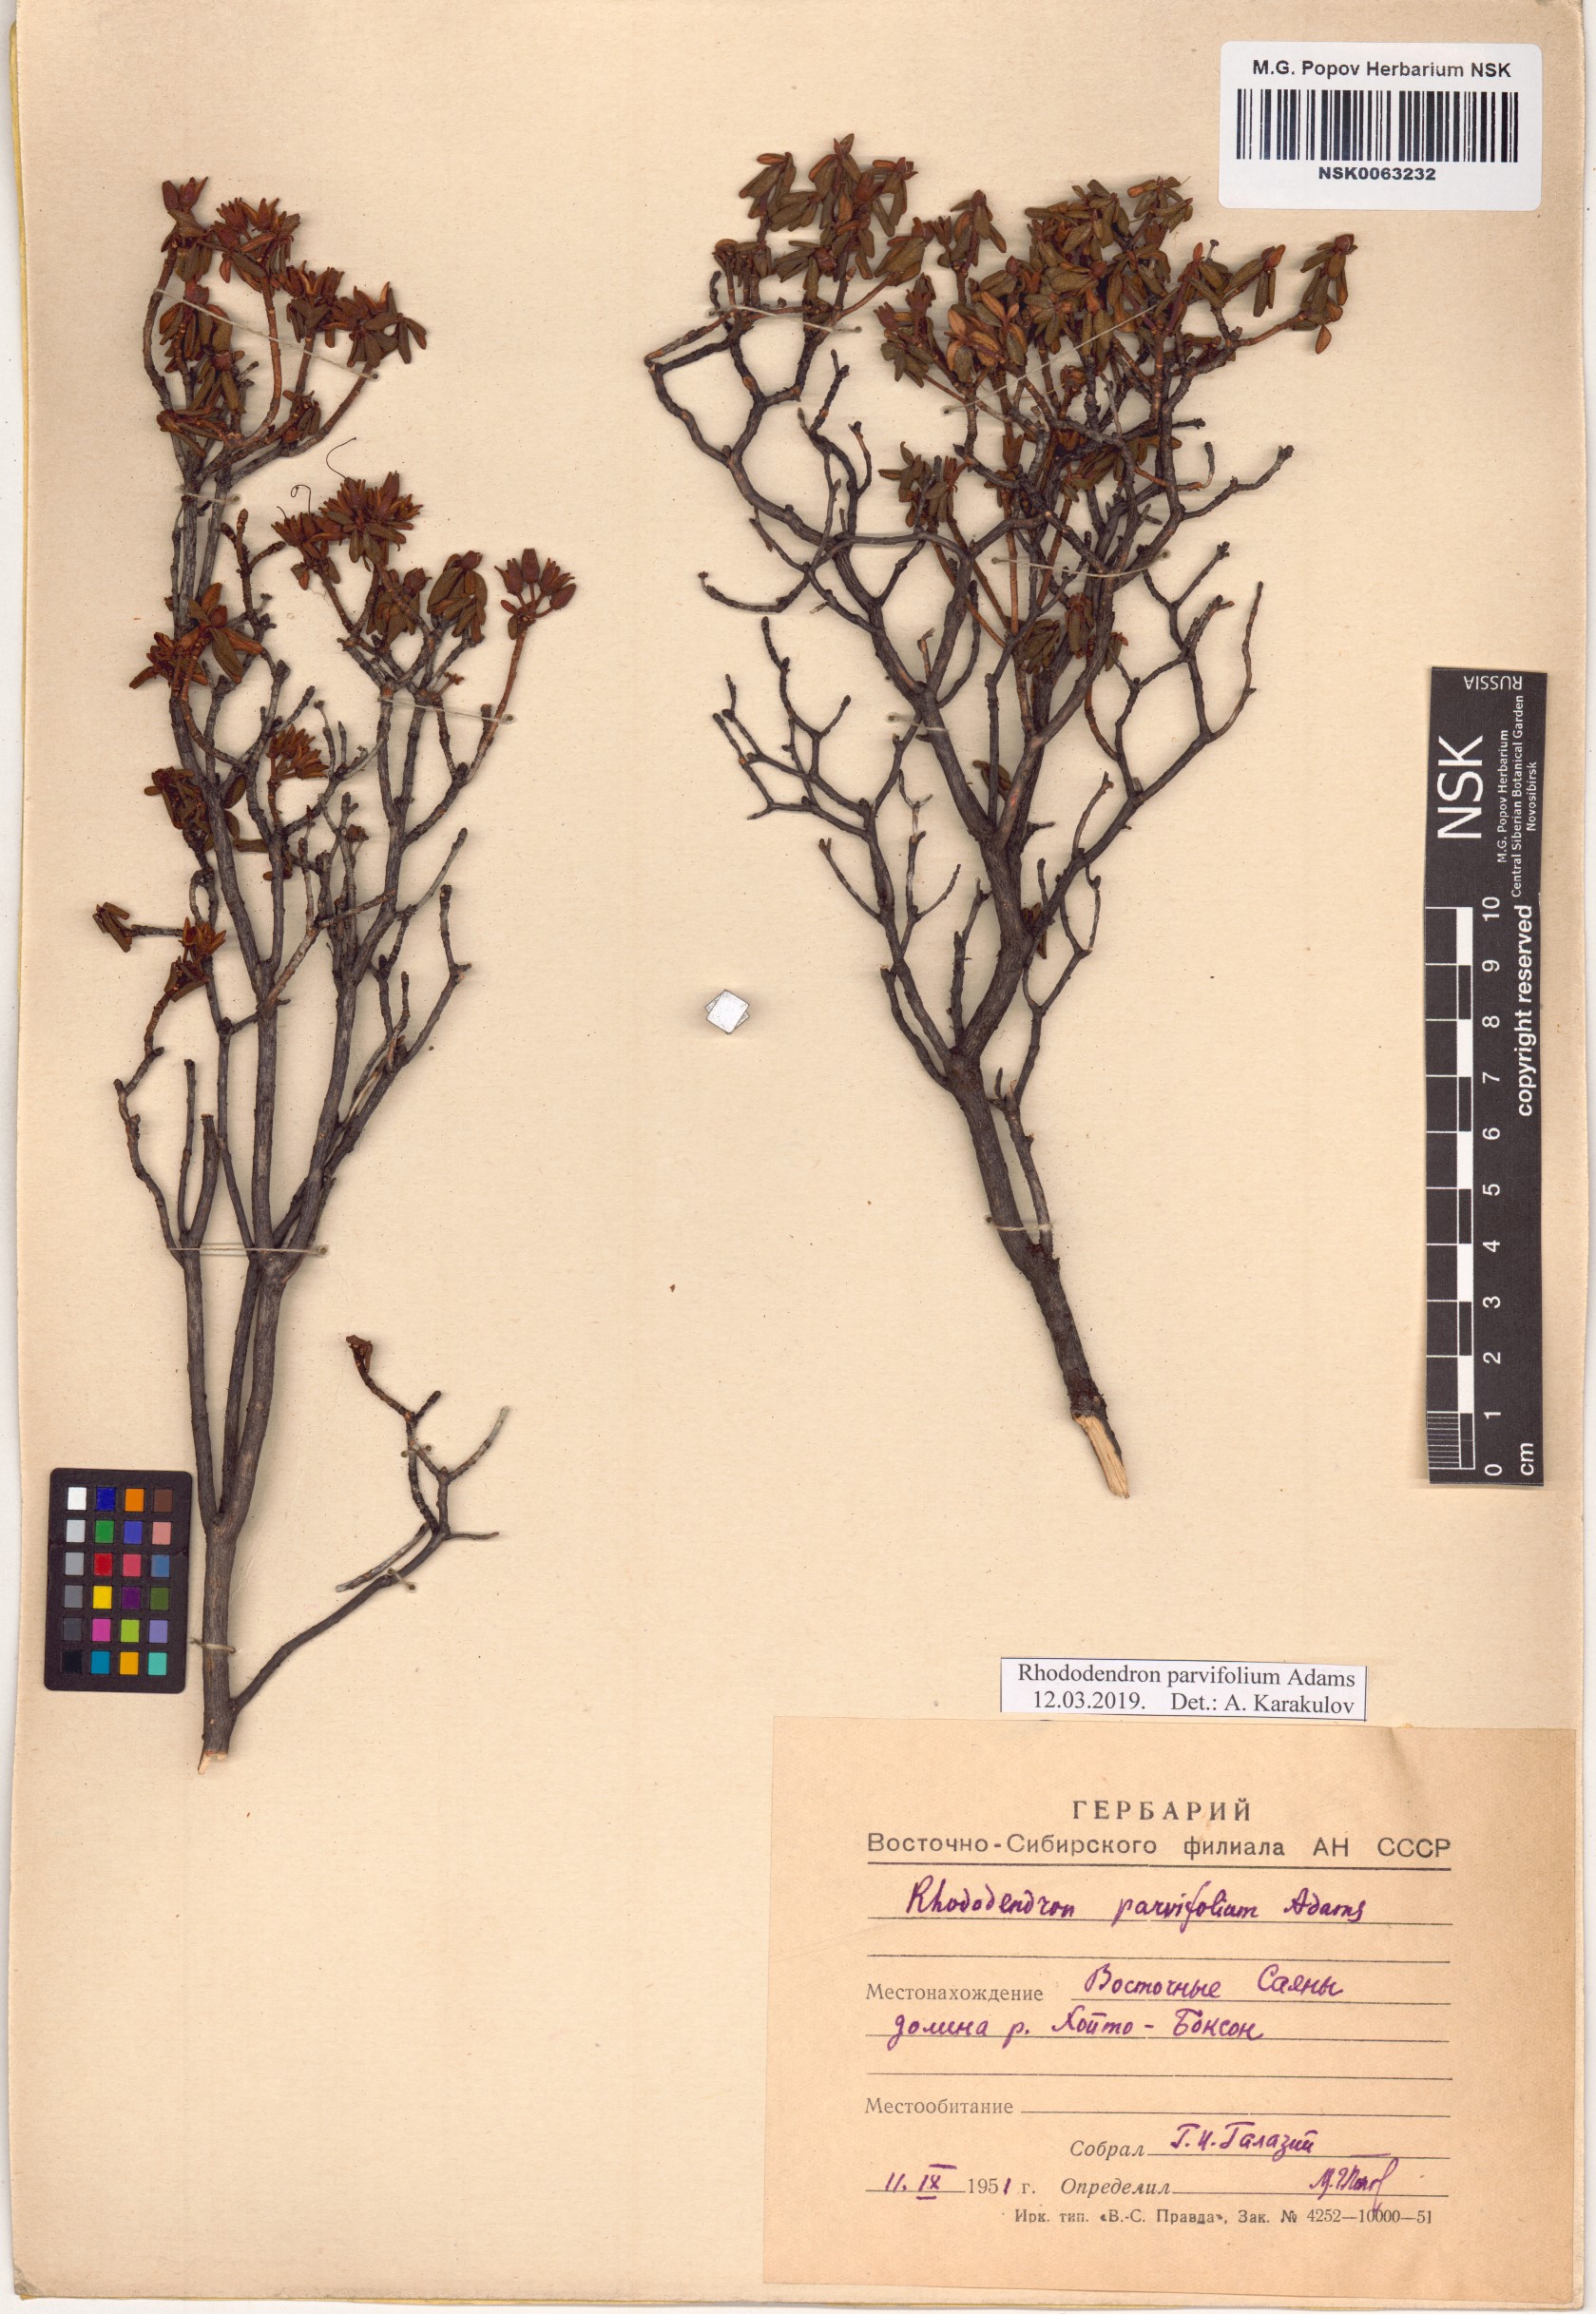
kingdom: Plantae
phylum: Tracheophyta
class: Magnoliopsida
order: Ericales
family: Ericaceae
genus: Rhododendron
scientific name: Rhododendron parvifolium
